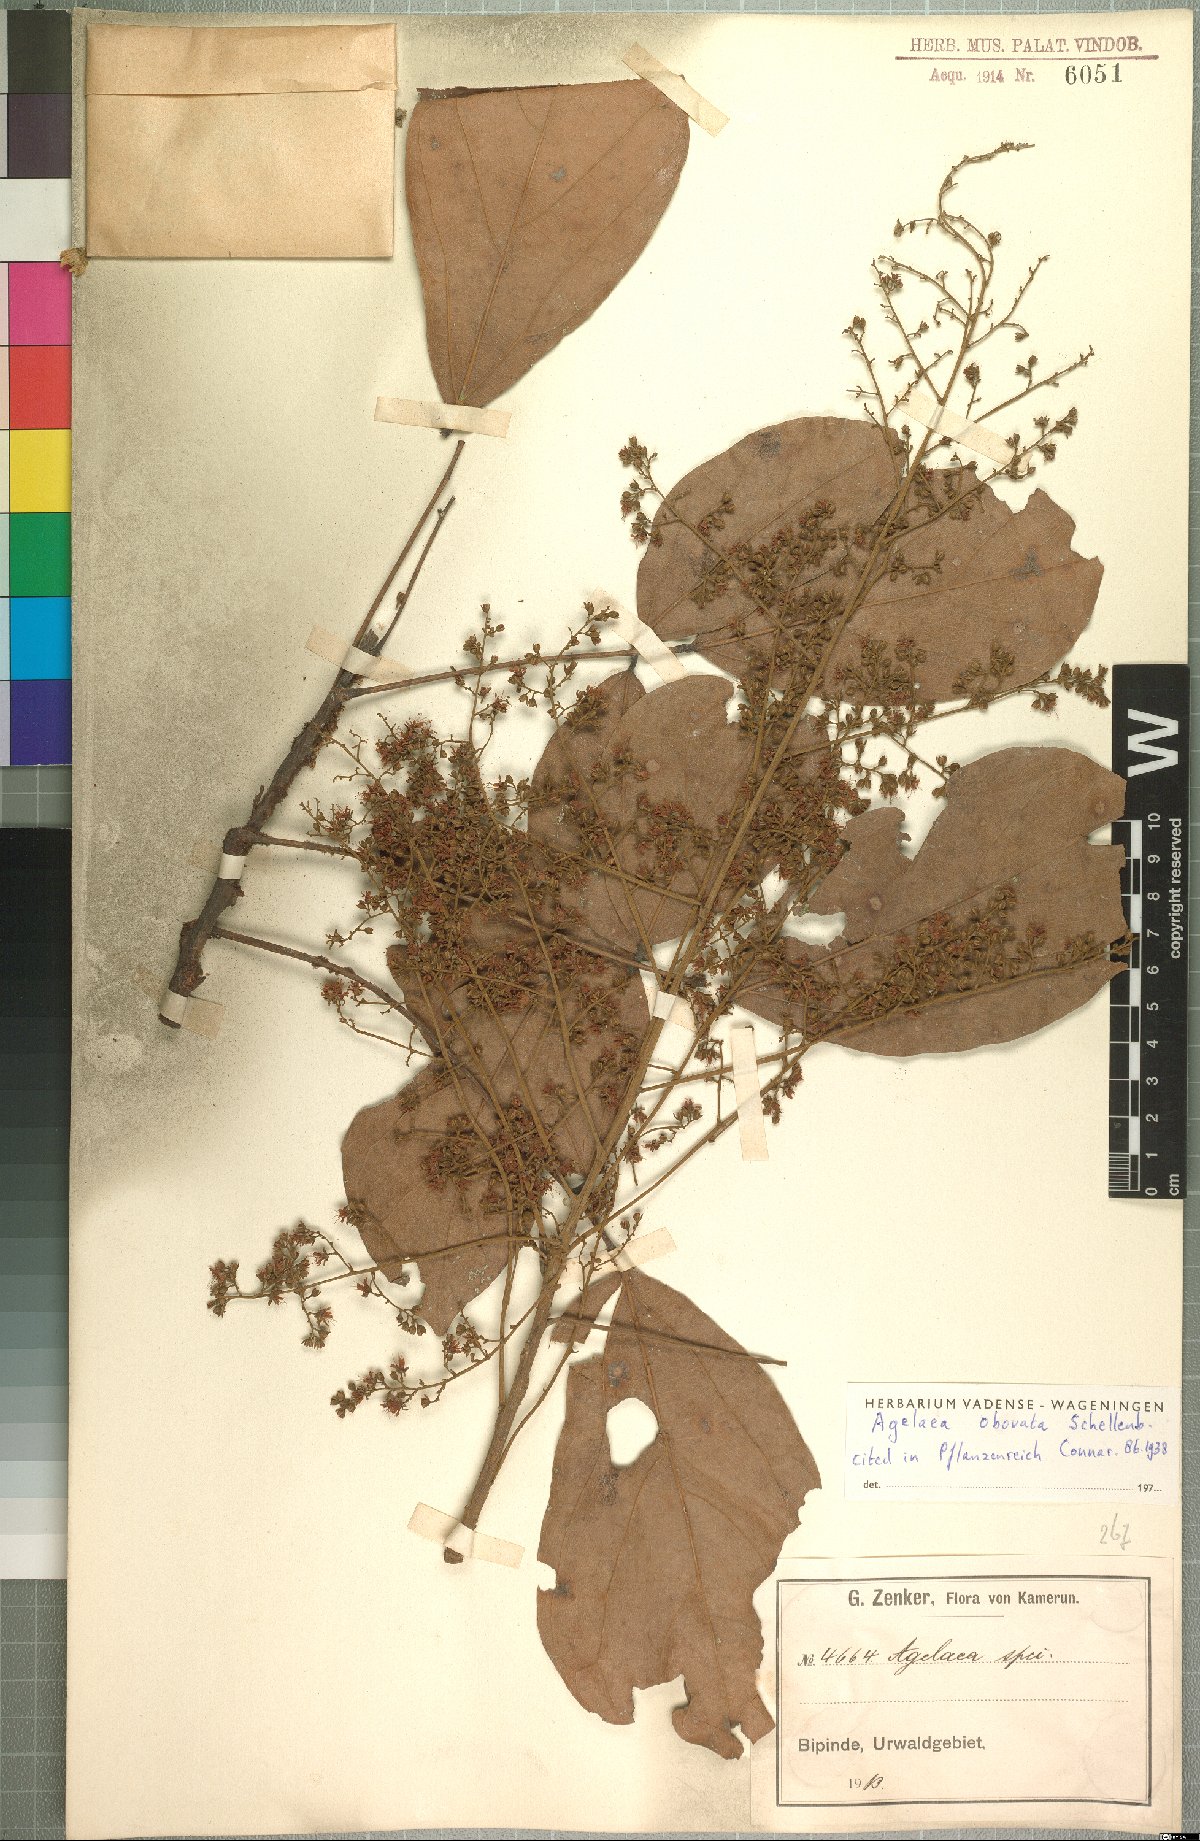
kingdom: Plantae
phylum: Tracheophyta
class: Magnoliopsida
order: Oxalidales
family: Connaraceae
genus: Agelaea
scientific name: Agelaea pentagyna
